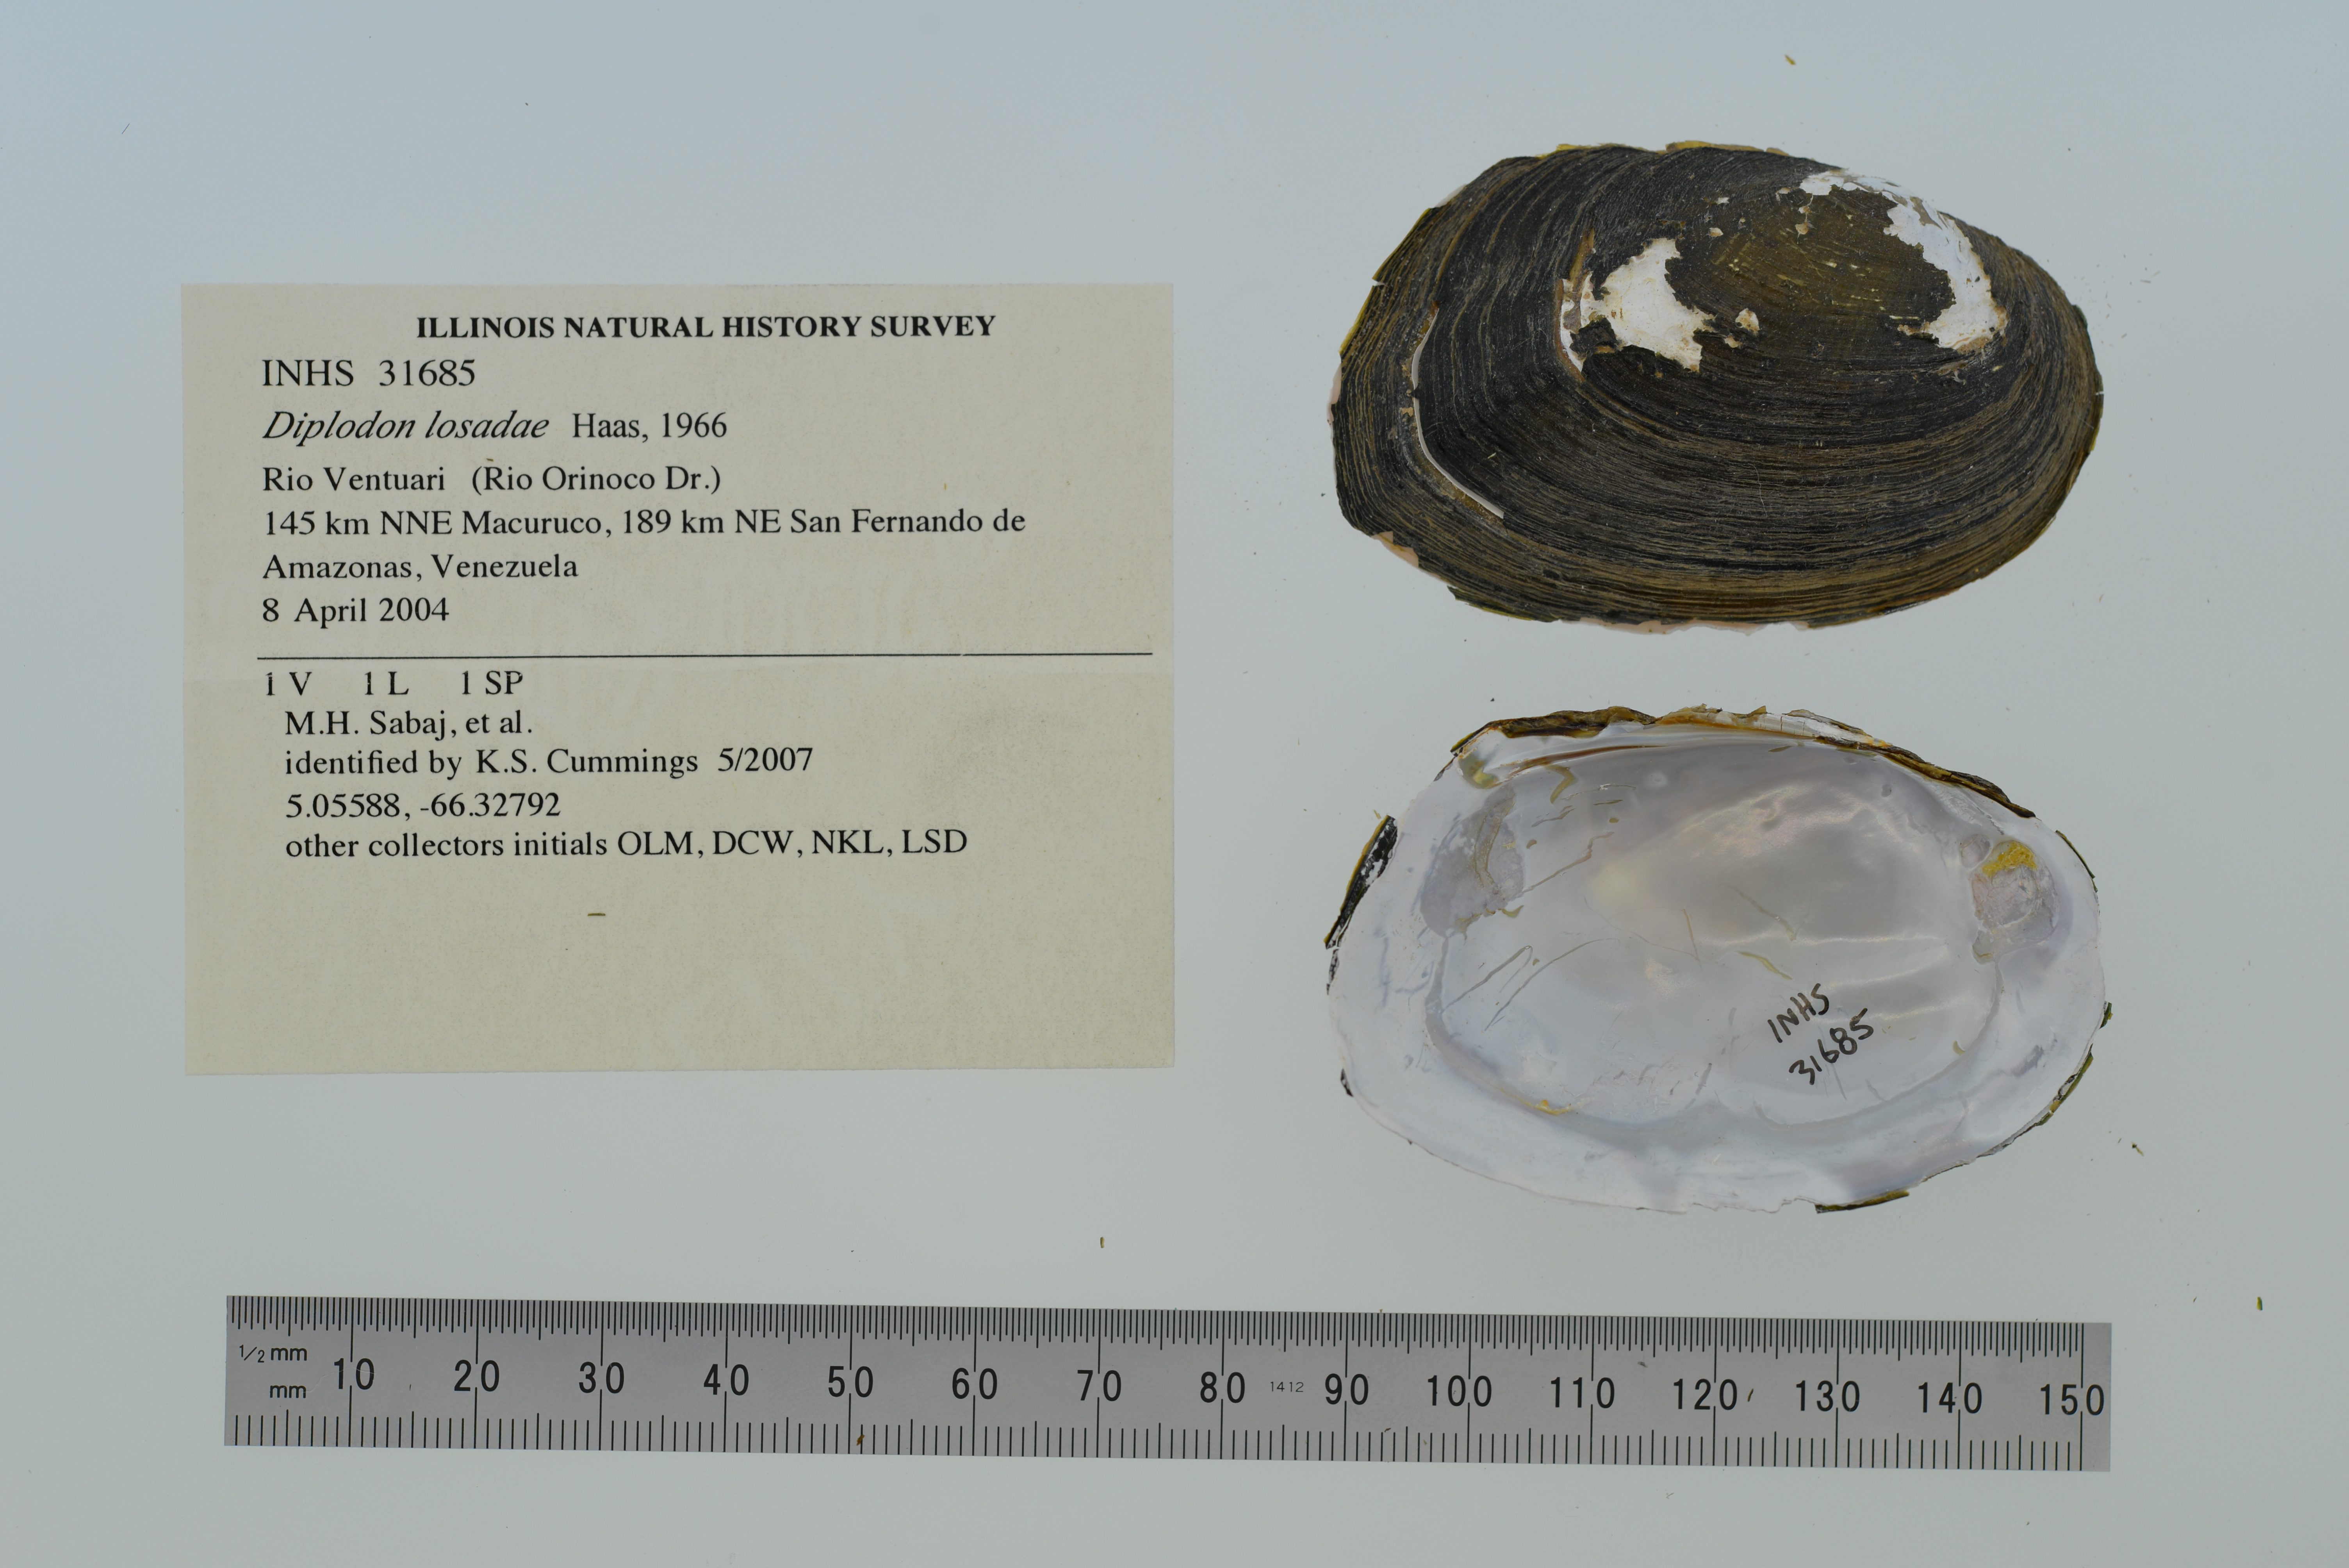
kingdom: Animalia
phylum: Mollusca
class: Bivalvia
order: Unionida
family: Hyriidae
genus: Diplodon
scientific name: Diplodon losadae
